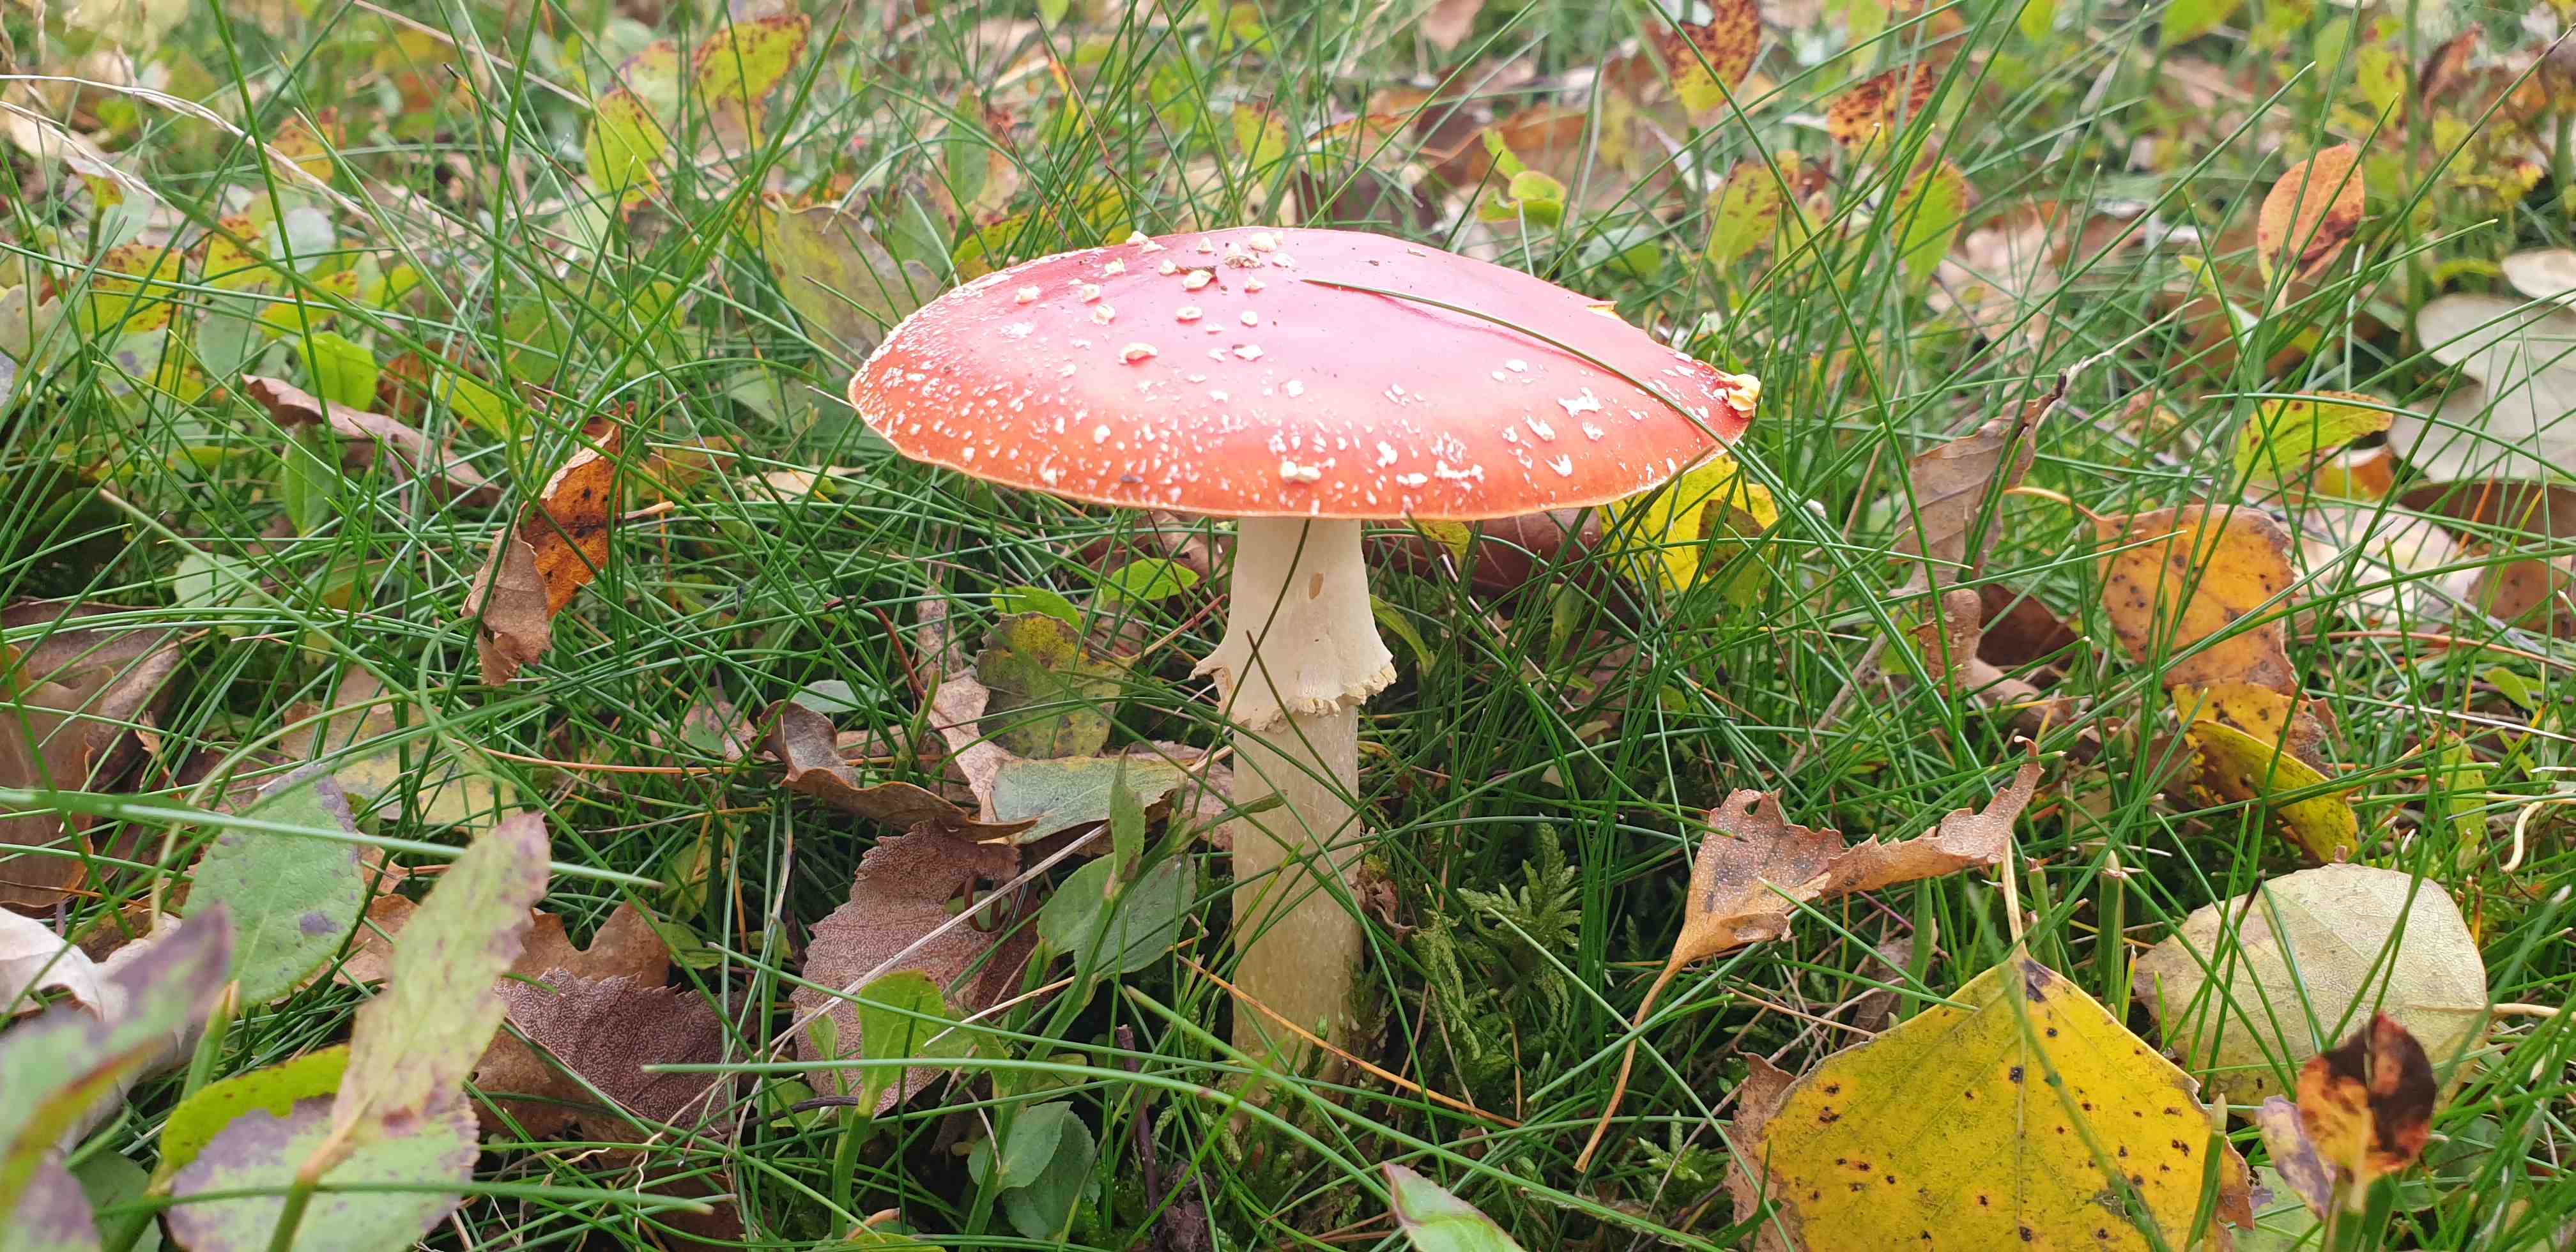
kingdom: Fungi
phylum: Basidiomycota
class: Agaricomycetes
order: Agaricales
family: Amanitaceae
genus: Amanita
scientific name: Amanita muscaria
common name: rød fluesvamp
